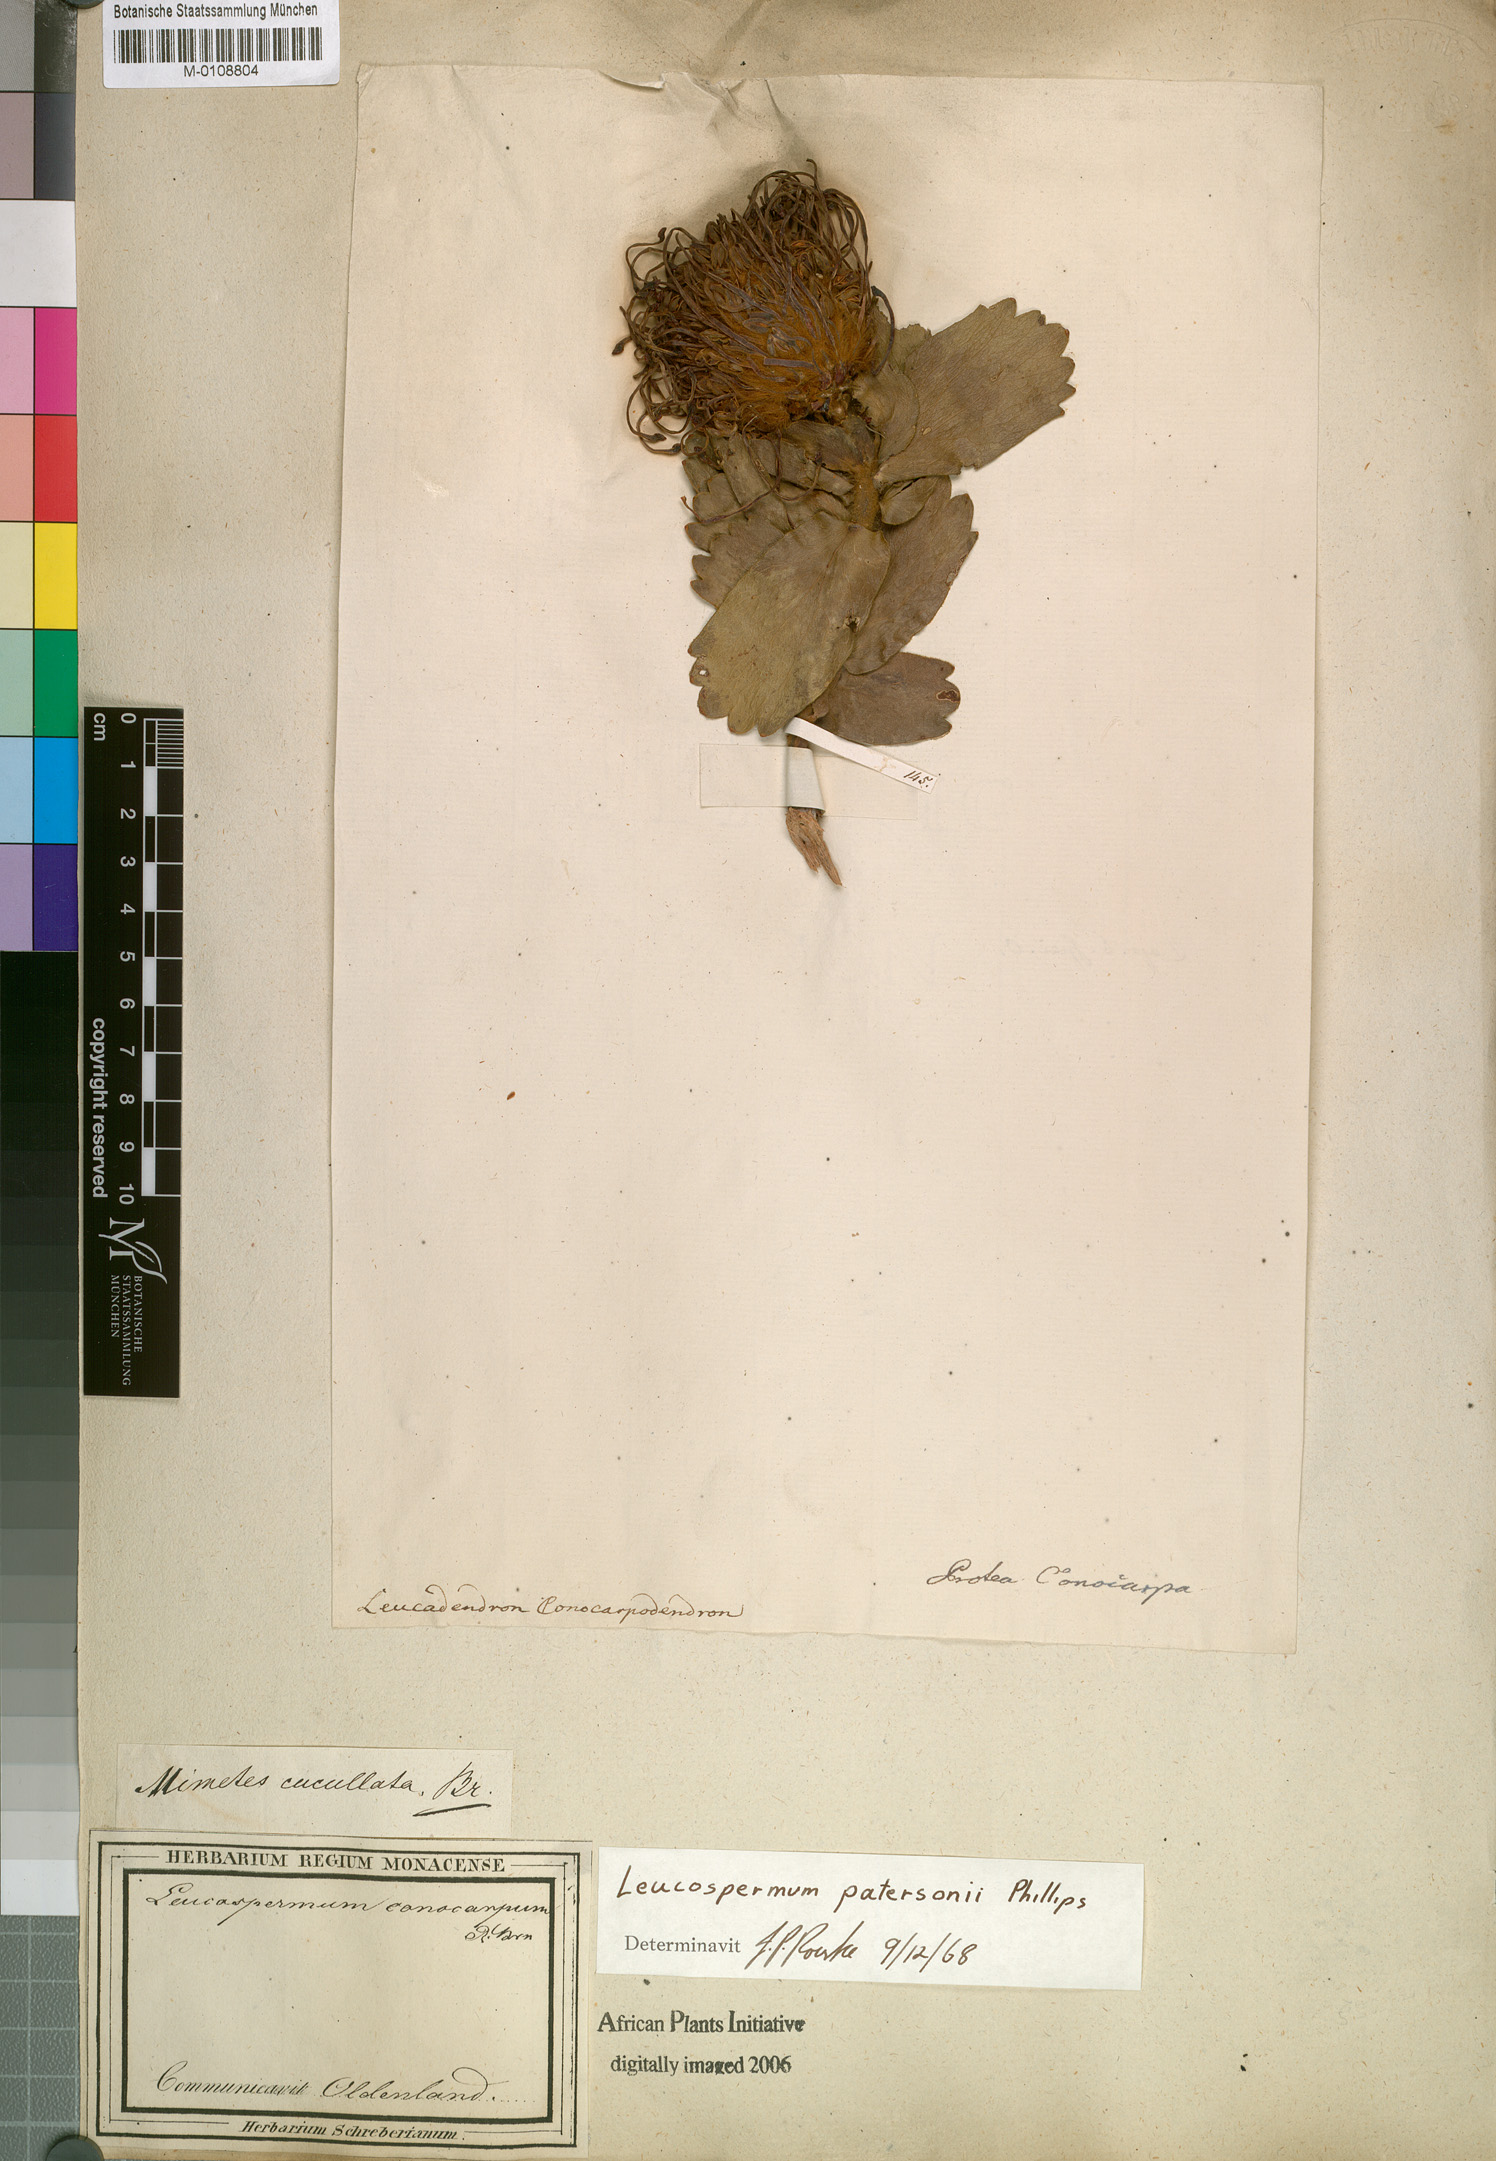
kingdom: Plantae
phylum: Tracheophyta
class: Magnoliopsida
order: Proteales
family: Proteaceae
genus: Leucospermum
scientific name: Leucospermum patersonii
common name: False tree pincushion
